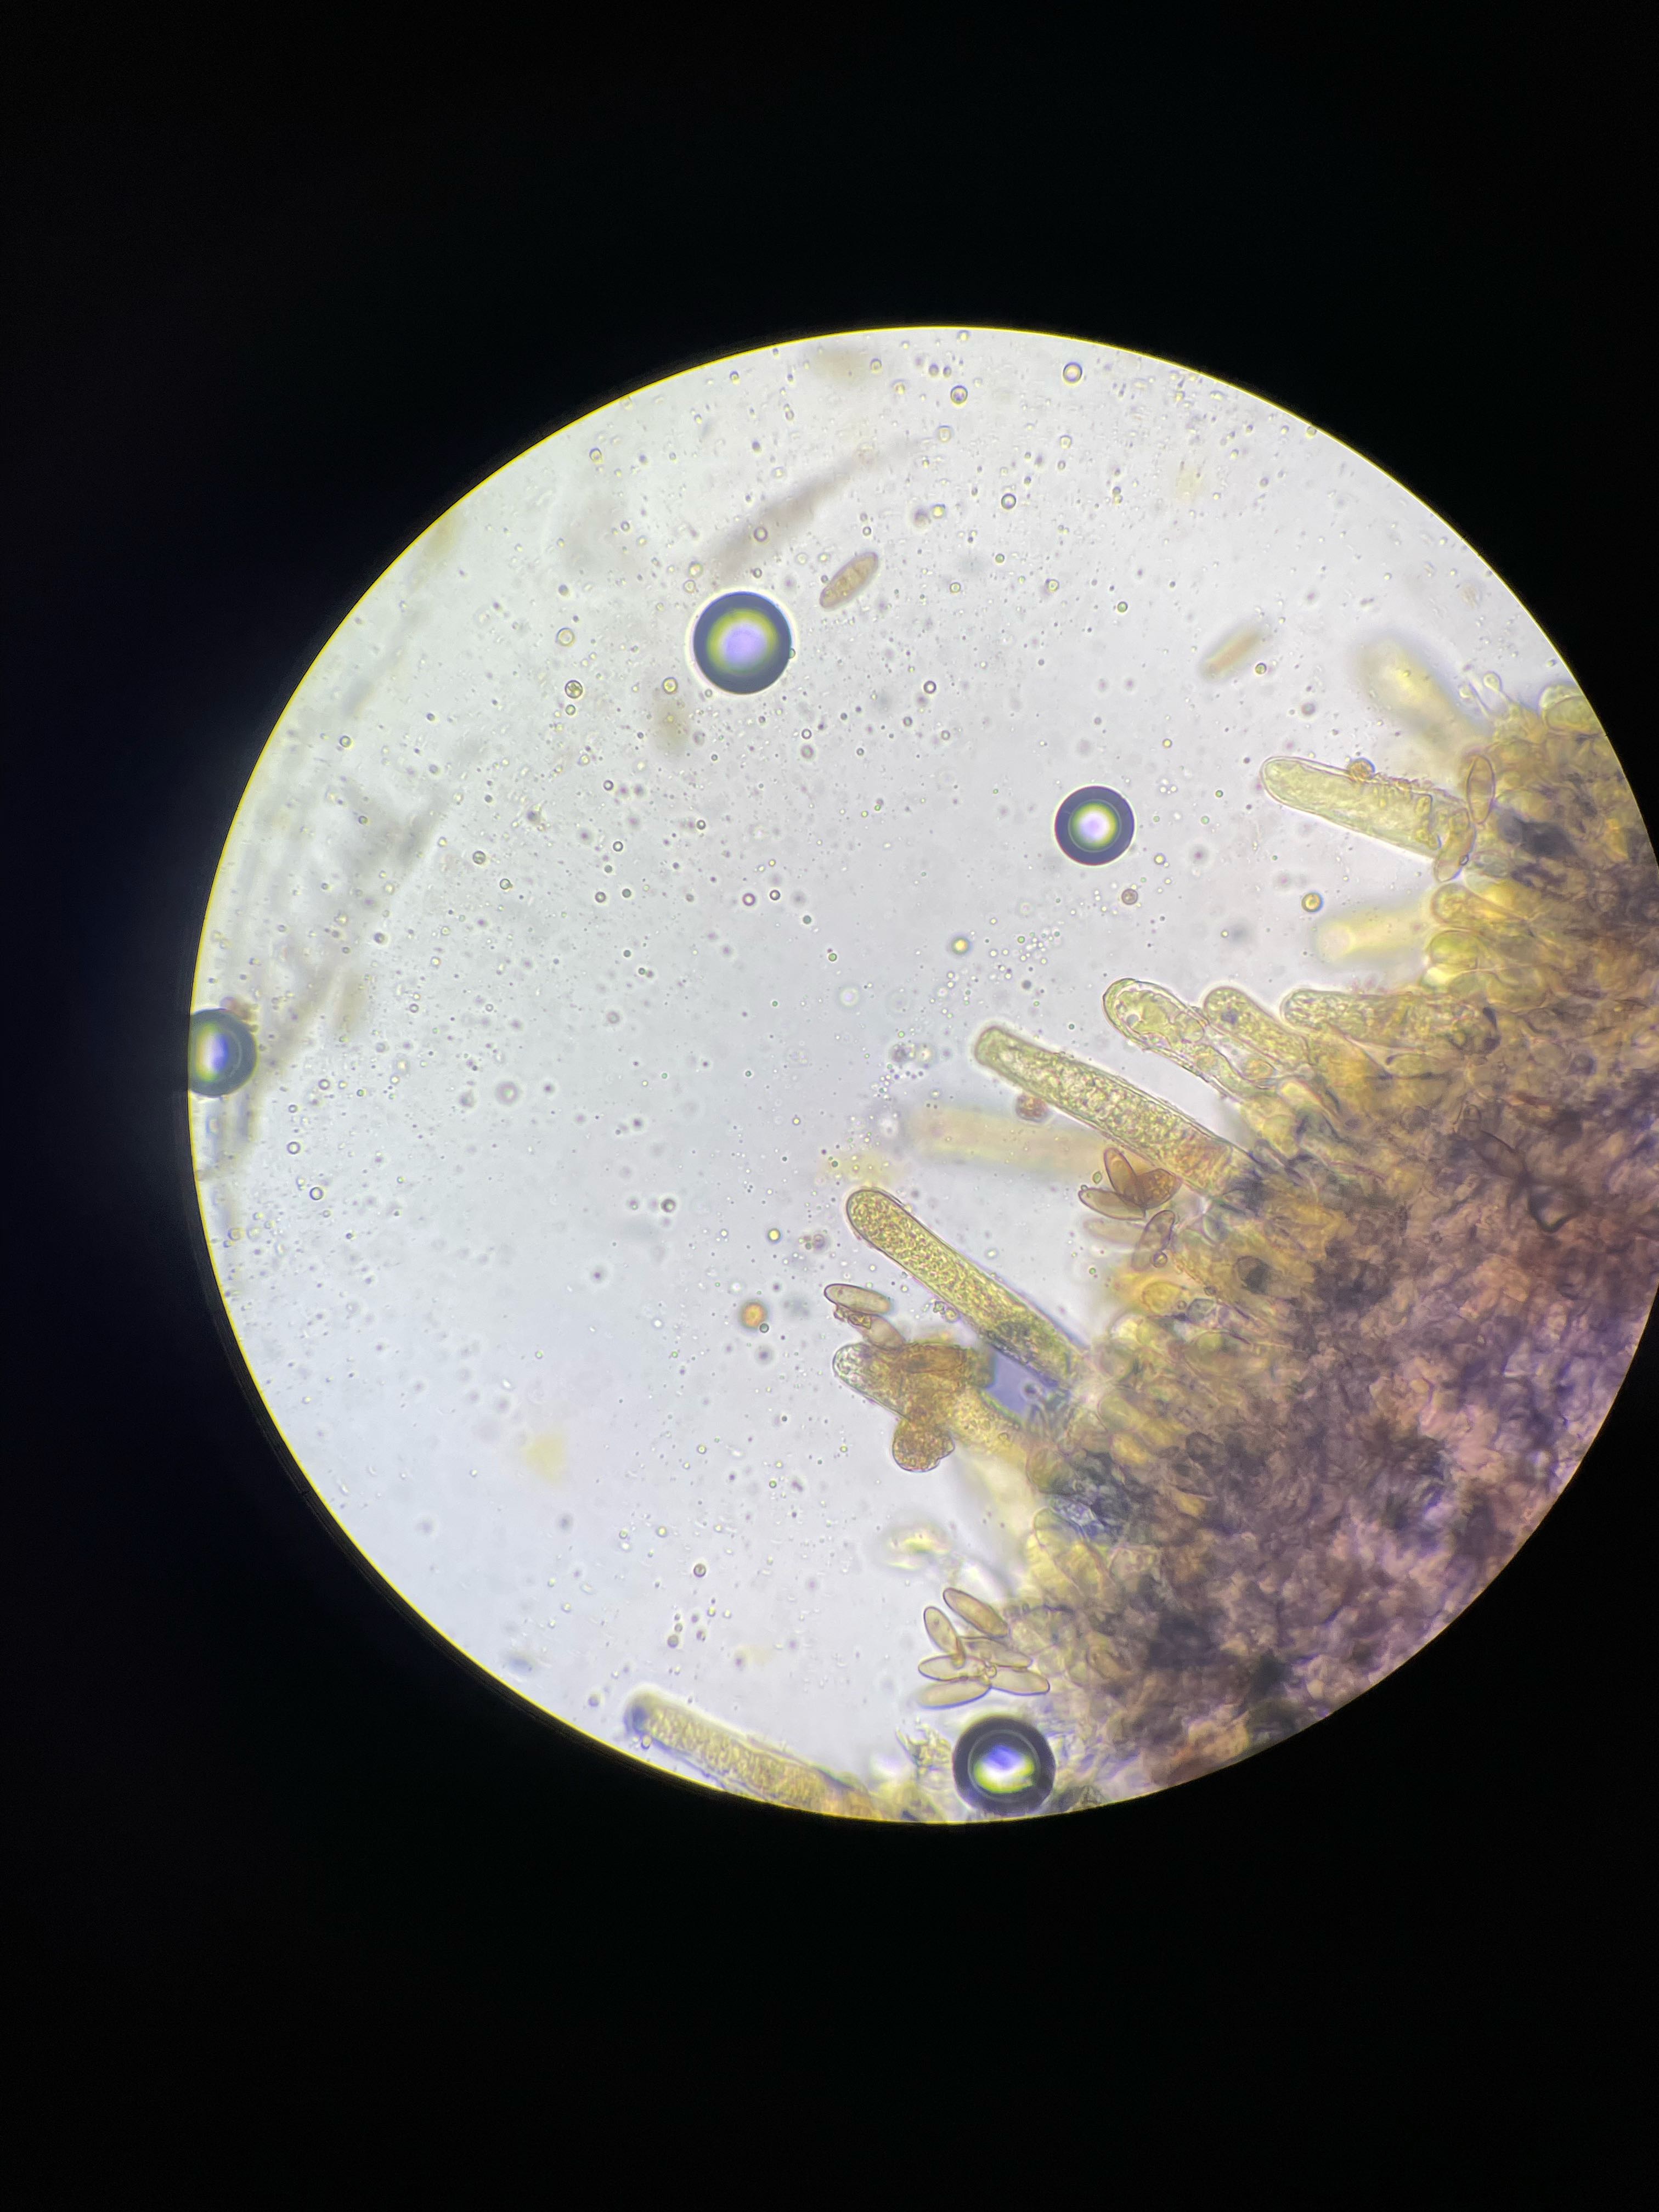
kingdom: Fungi
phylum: Basidiomycota
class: Agaricomycetes
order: Boletales
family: Gomphidiaceae
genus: Chroogomphus
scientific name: Chroogomphus rutilus
